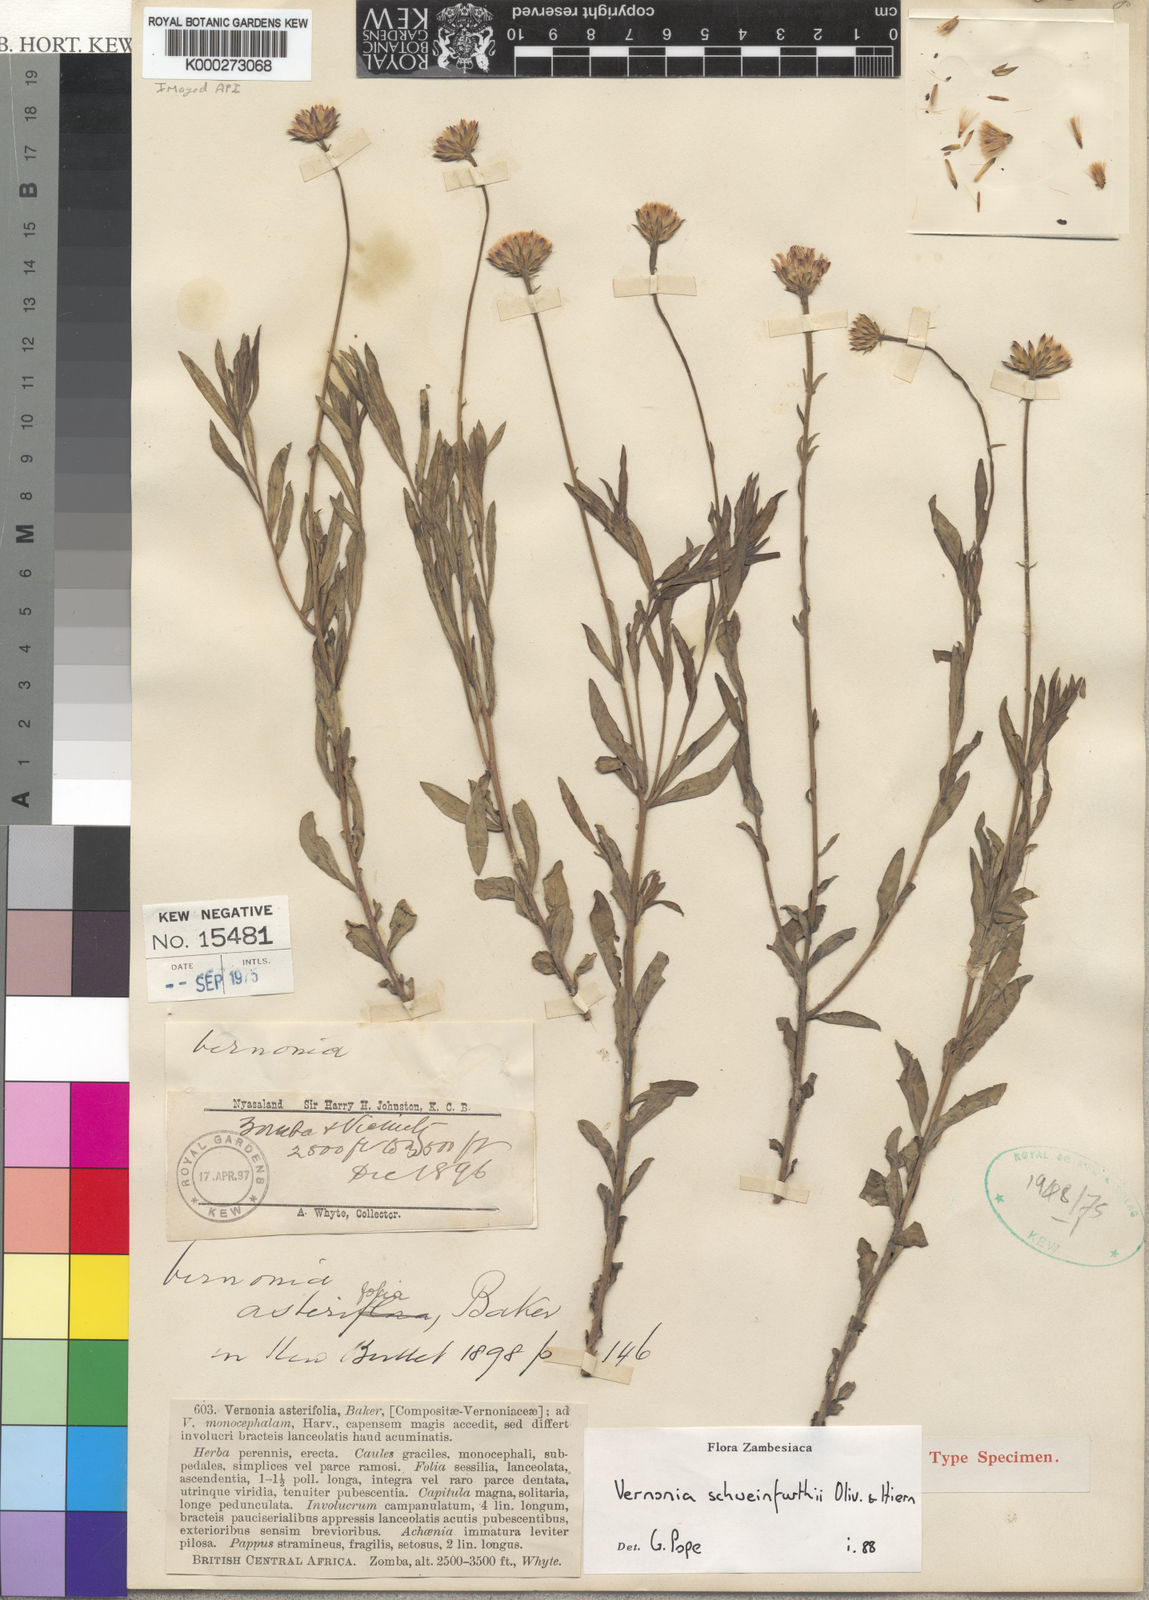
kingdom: Plantae
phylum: Tracheophyta
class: Magnoliopsida
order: Asterales
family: Asteraceae
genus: Vernonia
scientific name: Vernonia schweinfurthii
